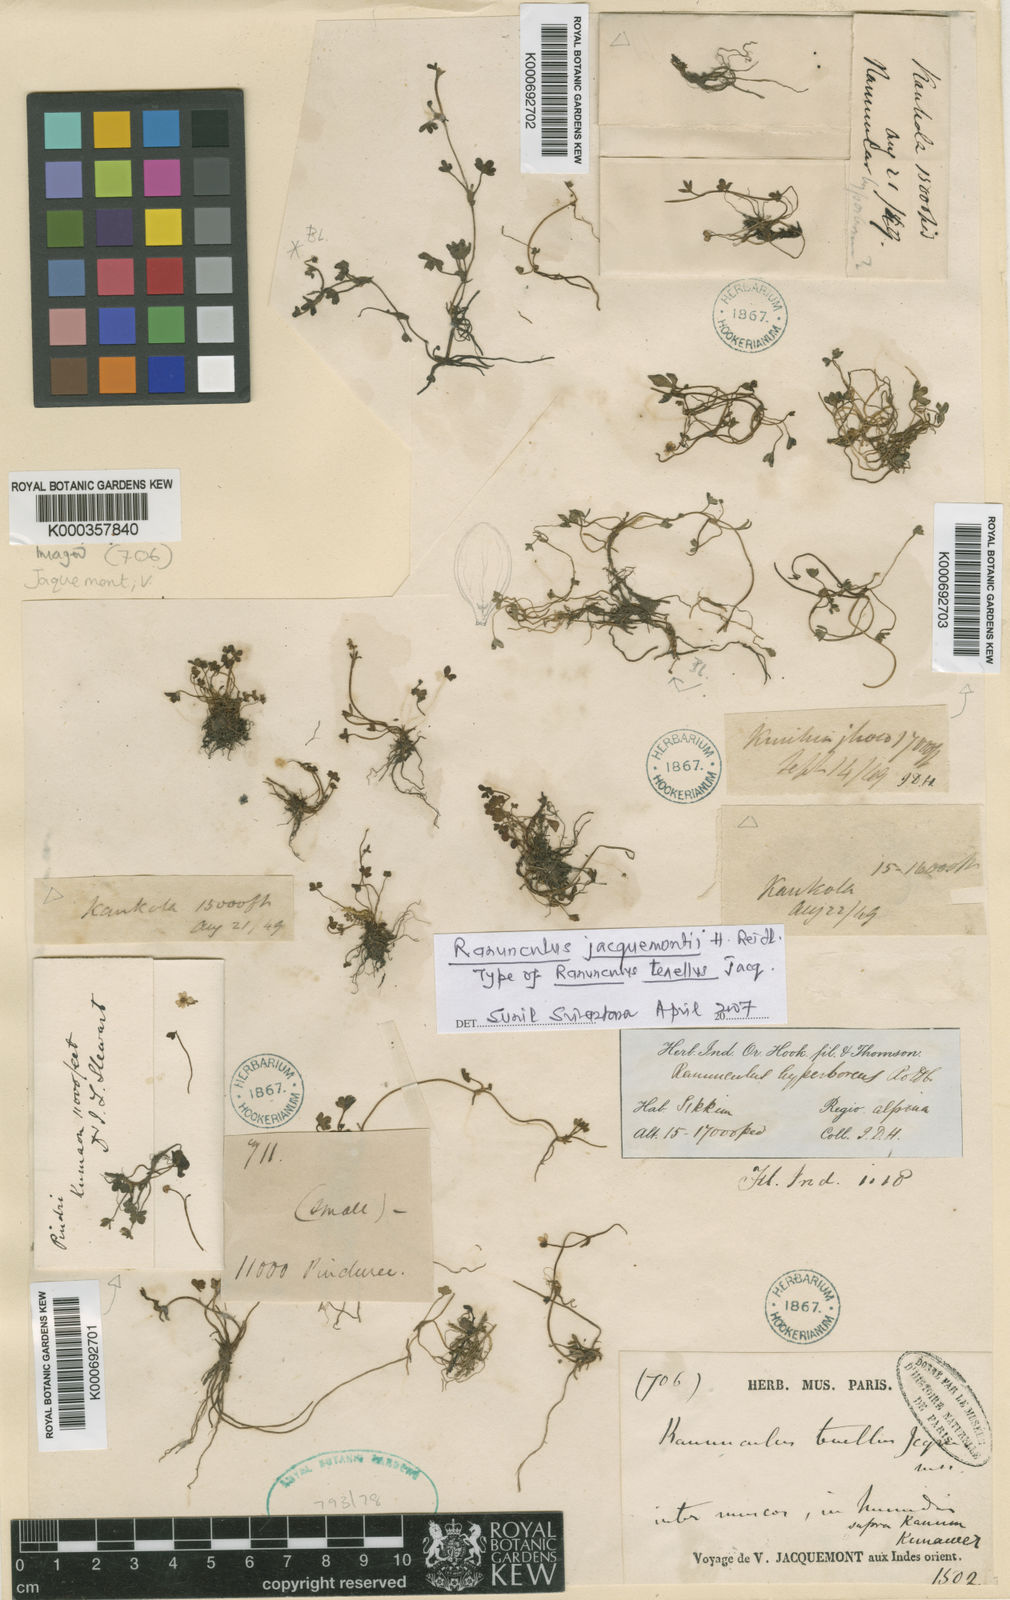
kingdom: Plantae
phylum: Tracheophyta
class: Magnoliopsida
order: Ranunculales
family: Ranunculaceae
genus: Ranunculus
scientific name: Ranunculus
